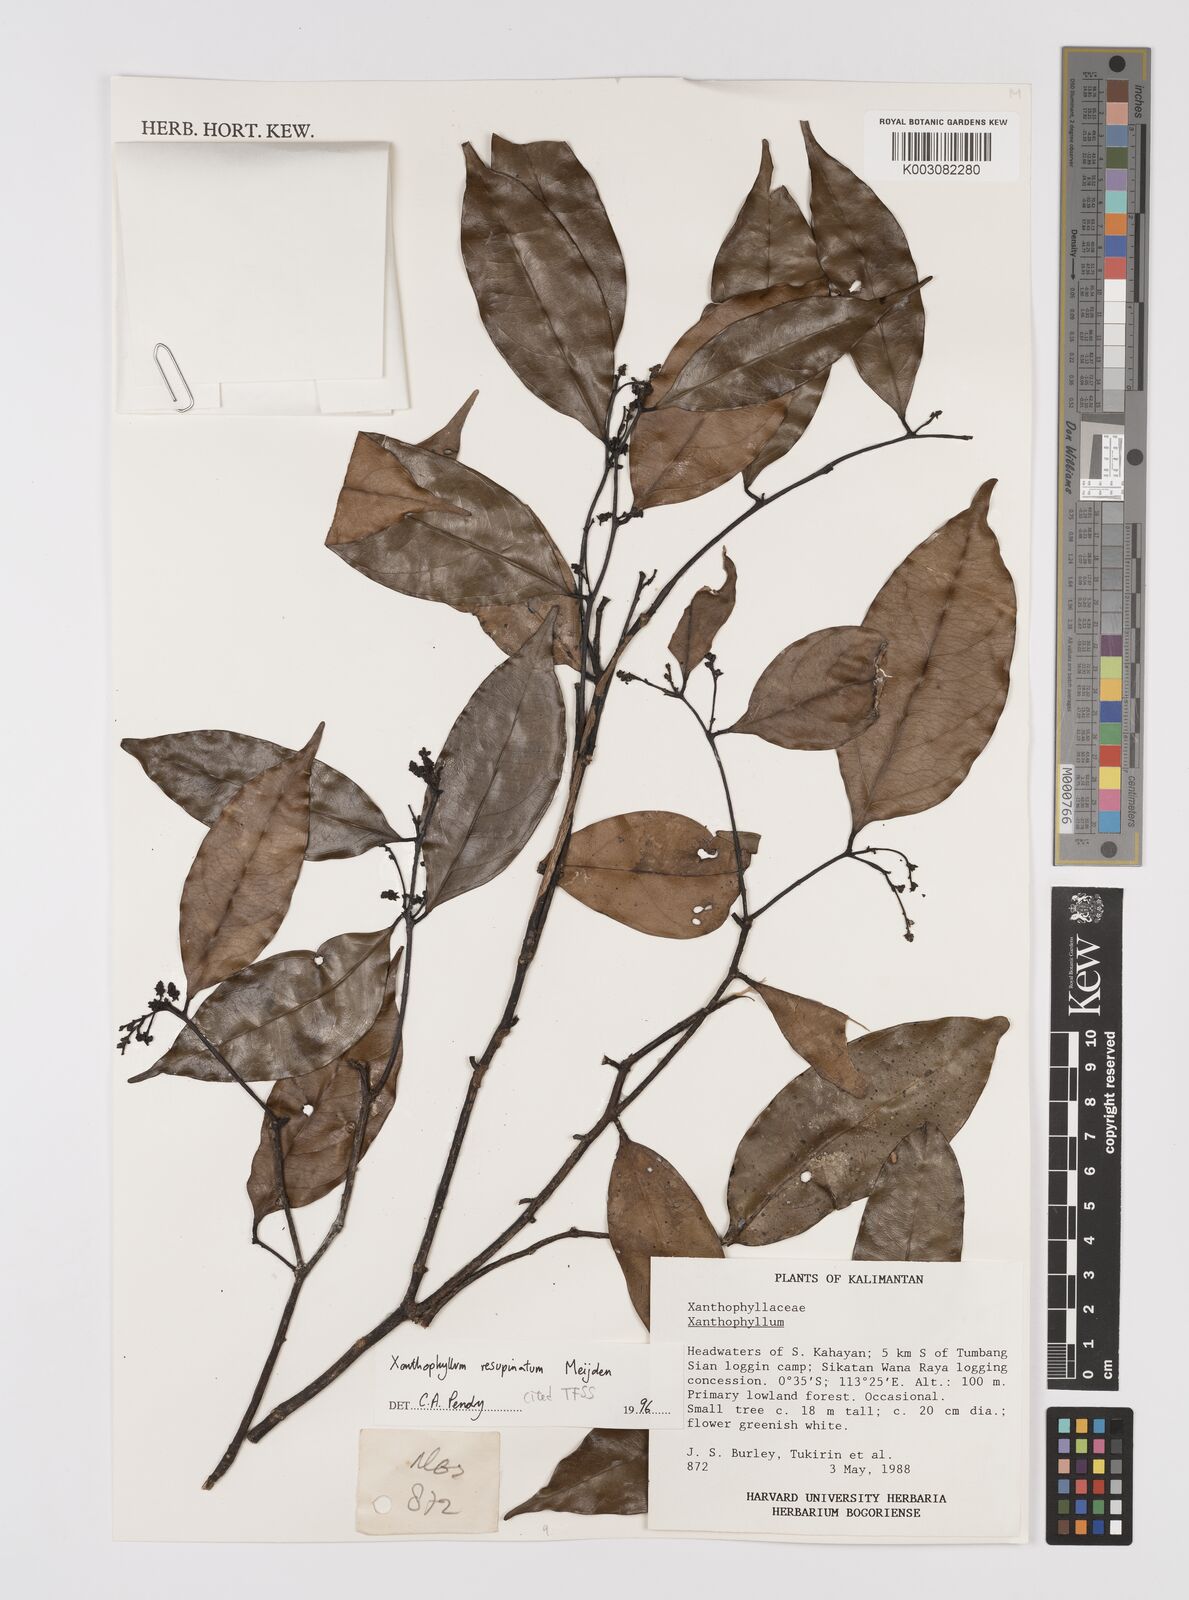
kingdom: Plantae
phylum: Tracheophyta
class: Magnoliopsida
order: Fabales
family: Polygalaceae
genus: Xanthophyllum
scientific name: Xanthophyllum resupinatum
